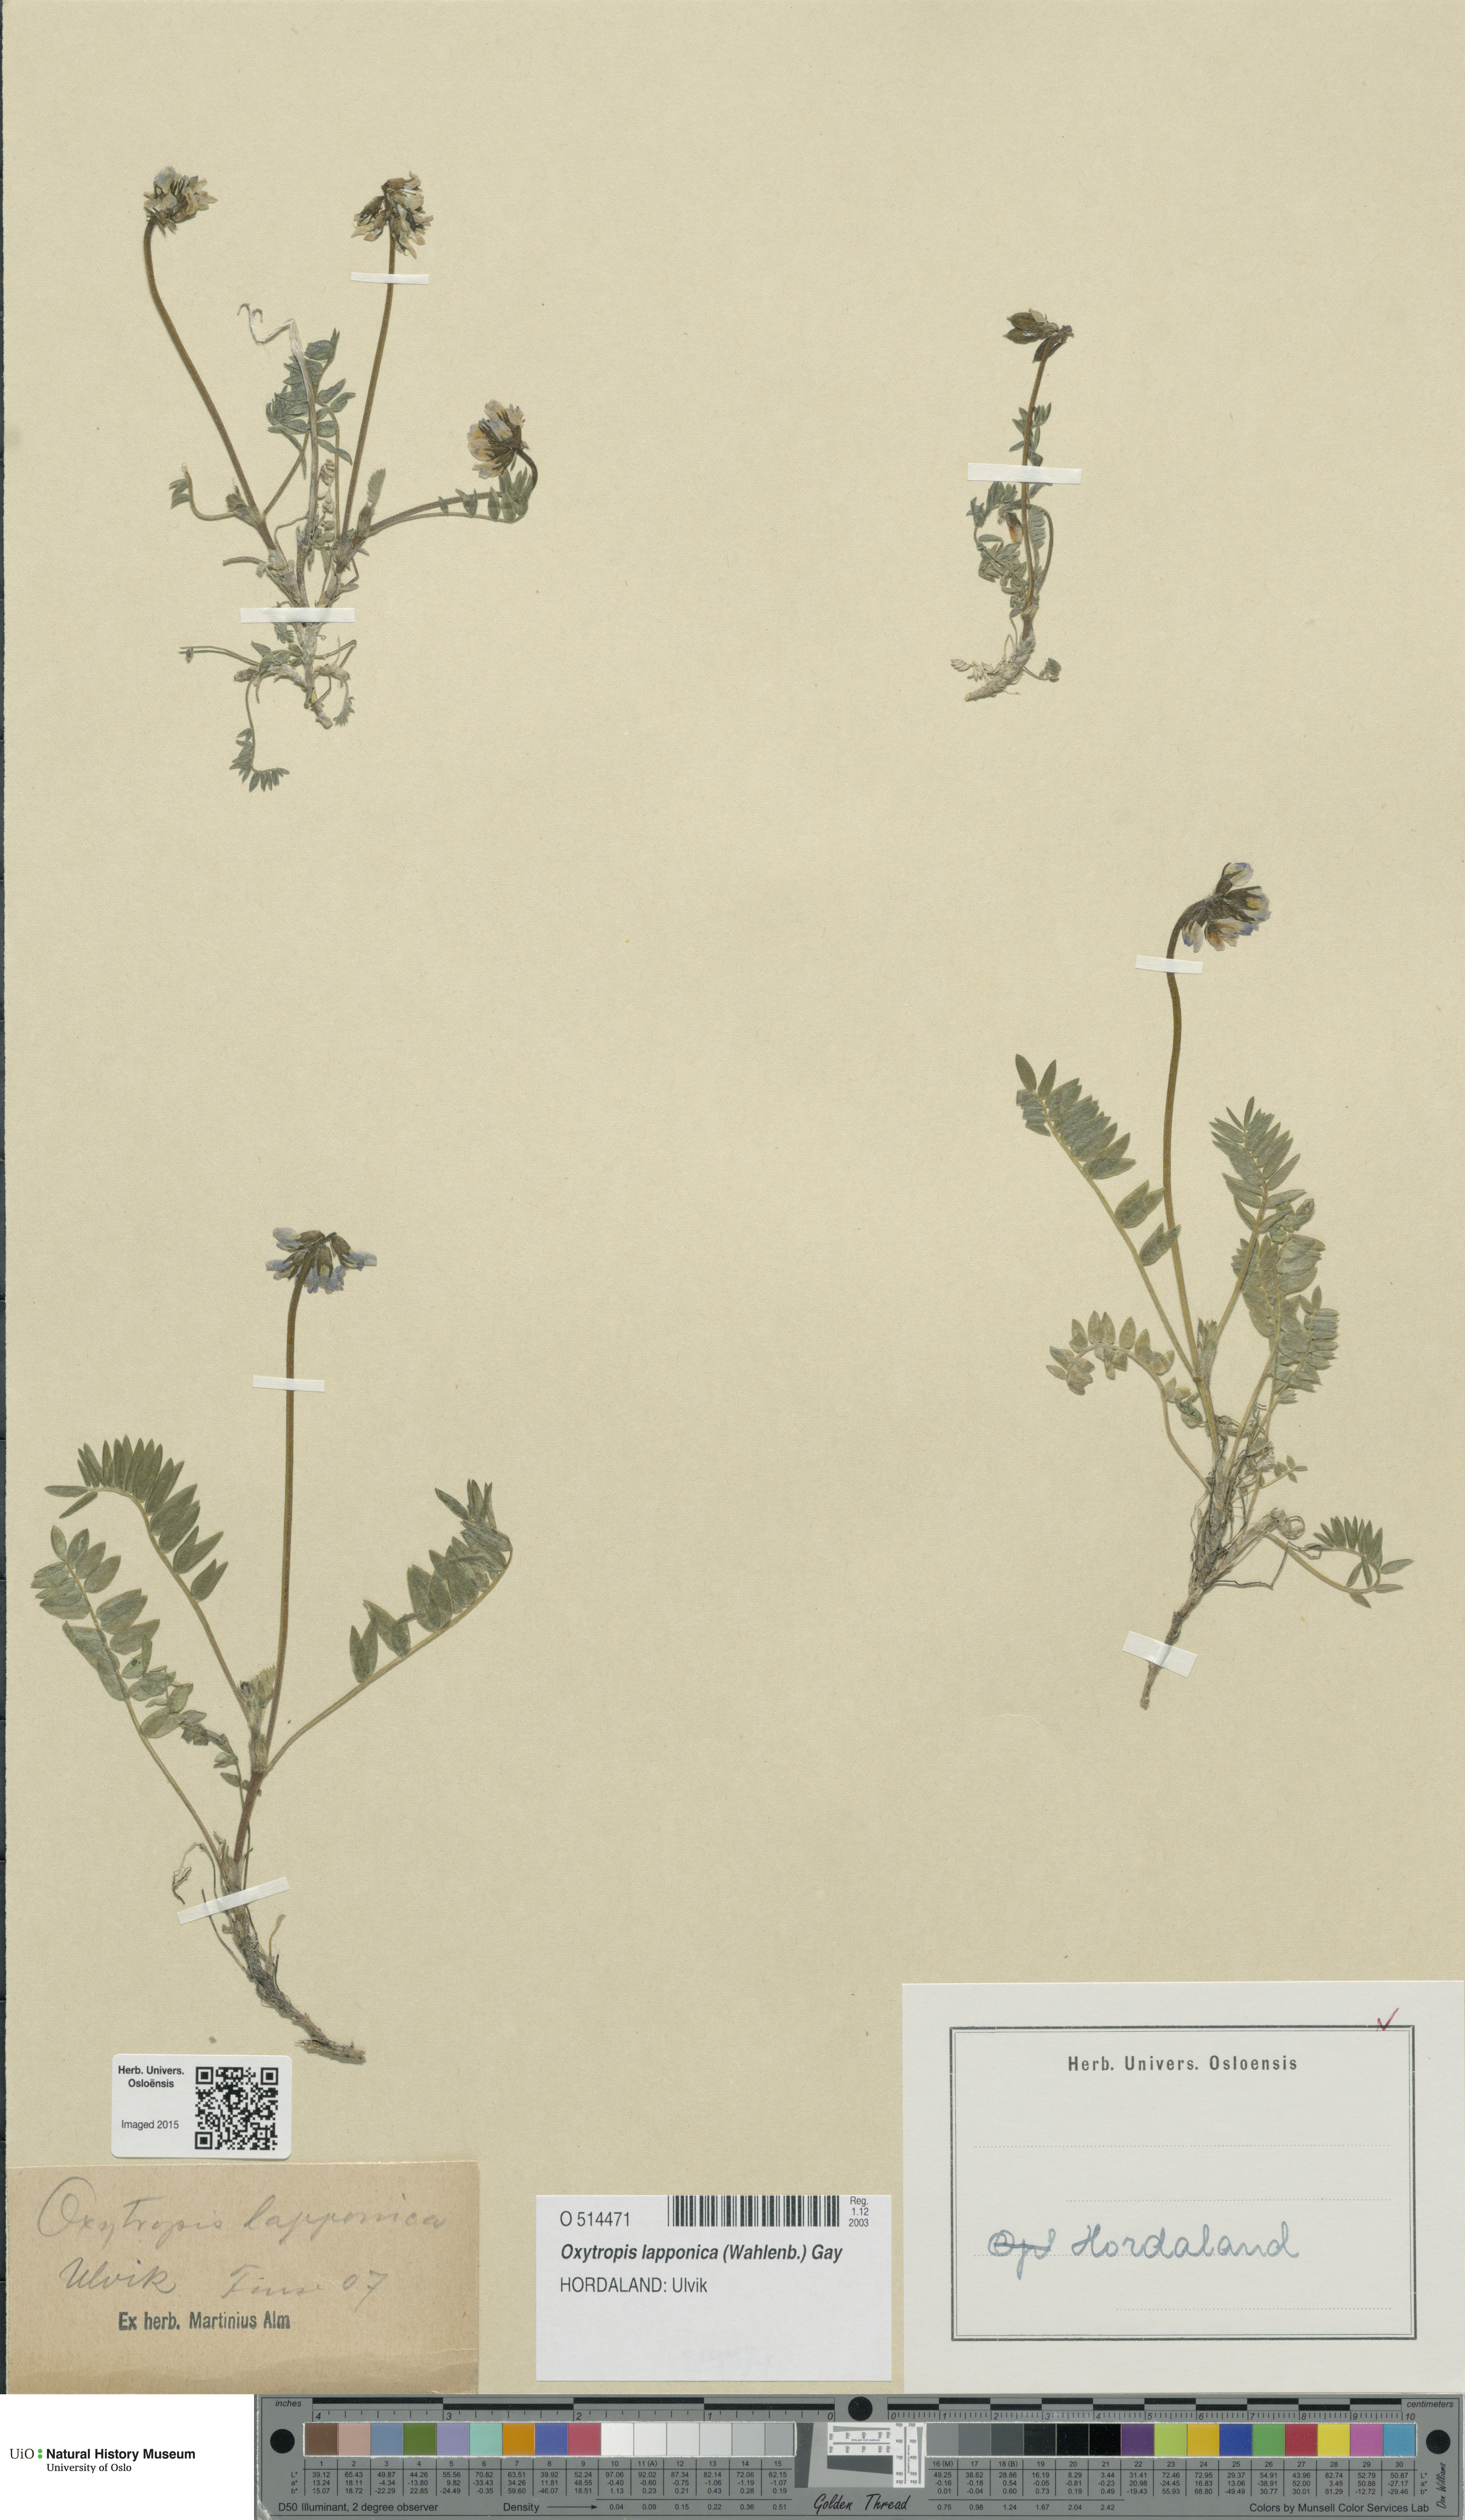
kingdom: Plantae
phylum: Tracheophyta
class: Magnoliopsida
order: Fabales
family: Fabaceae
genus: Oxytropis
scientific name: Oxytropis lapponica
